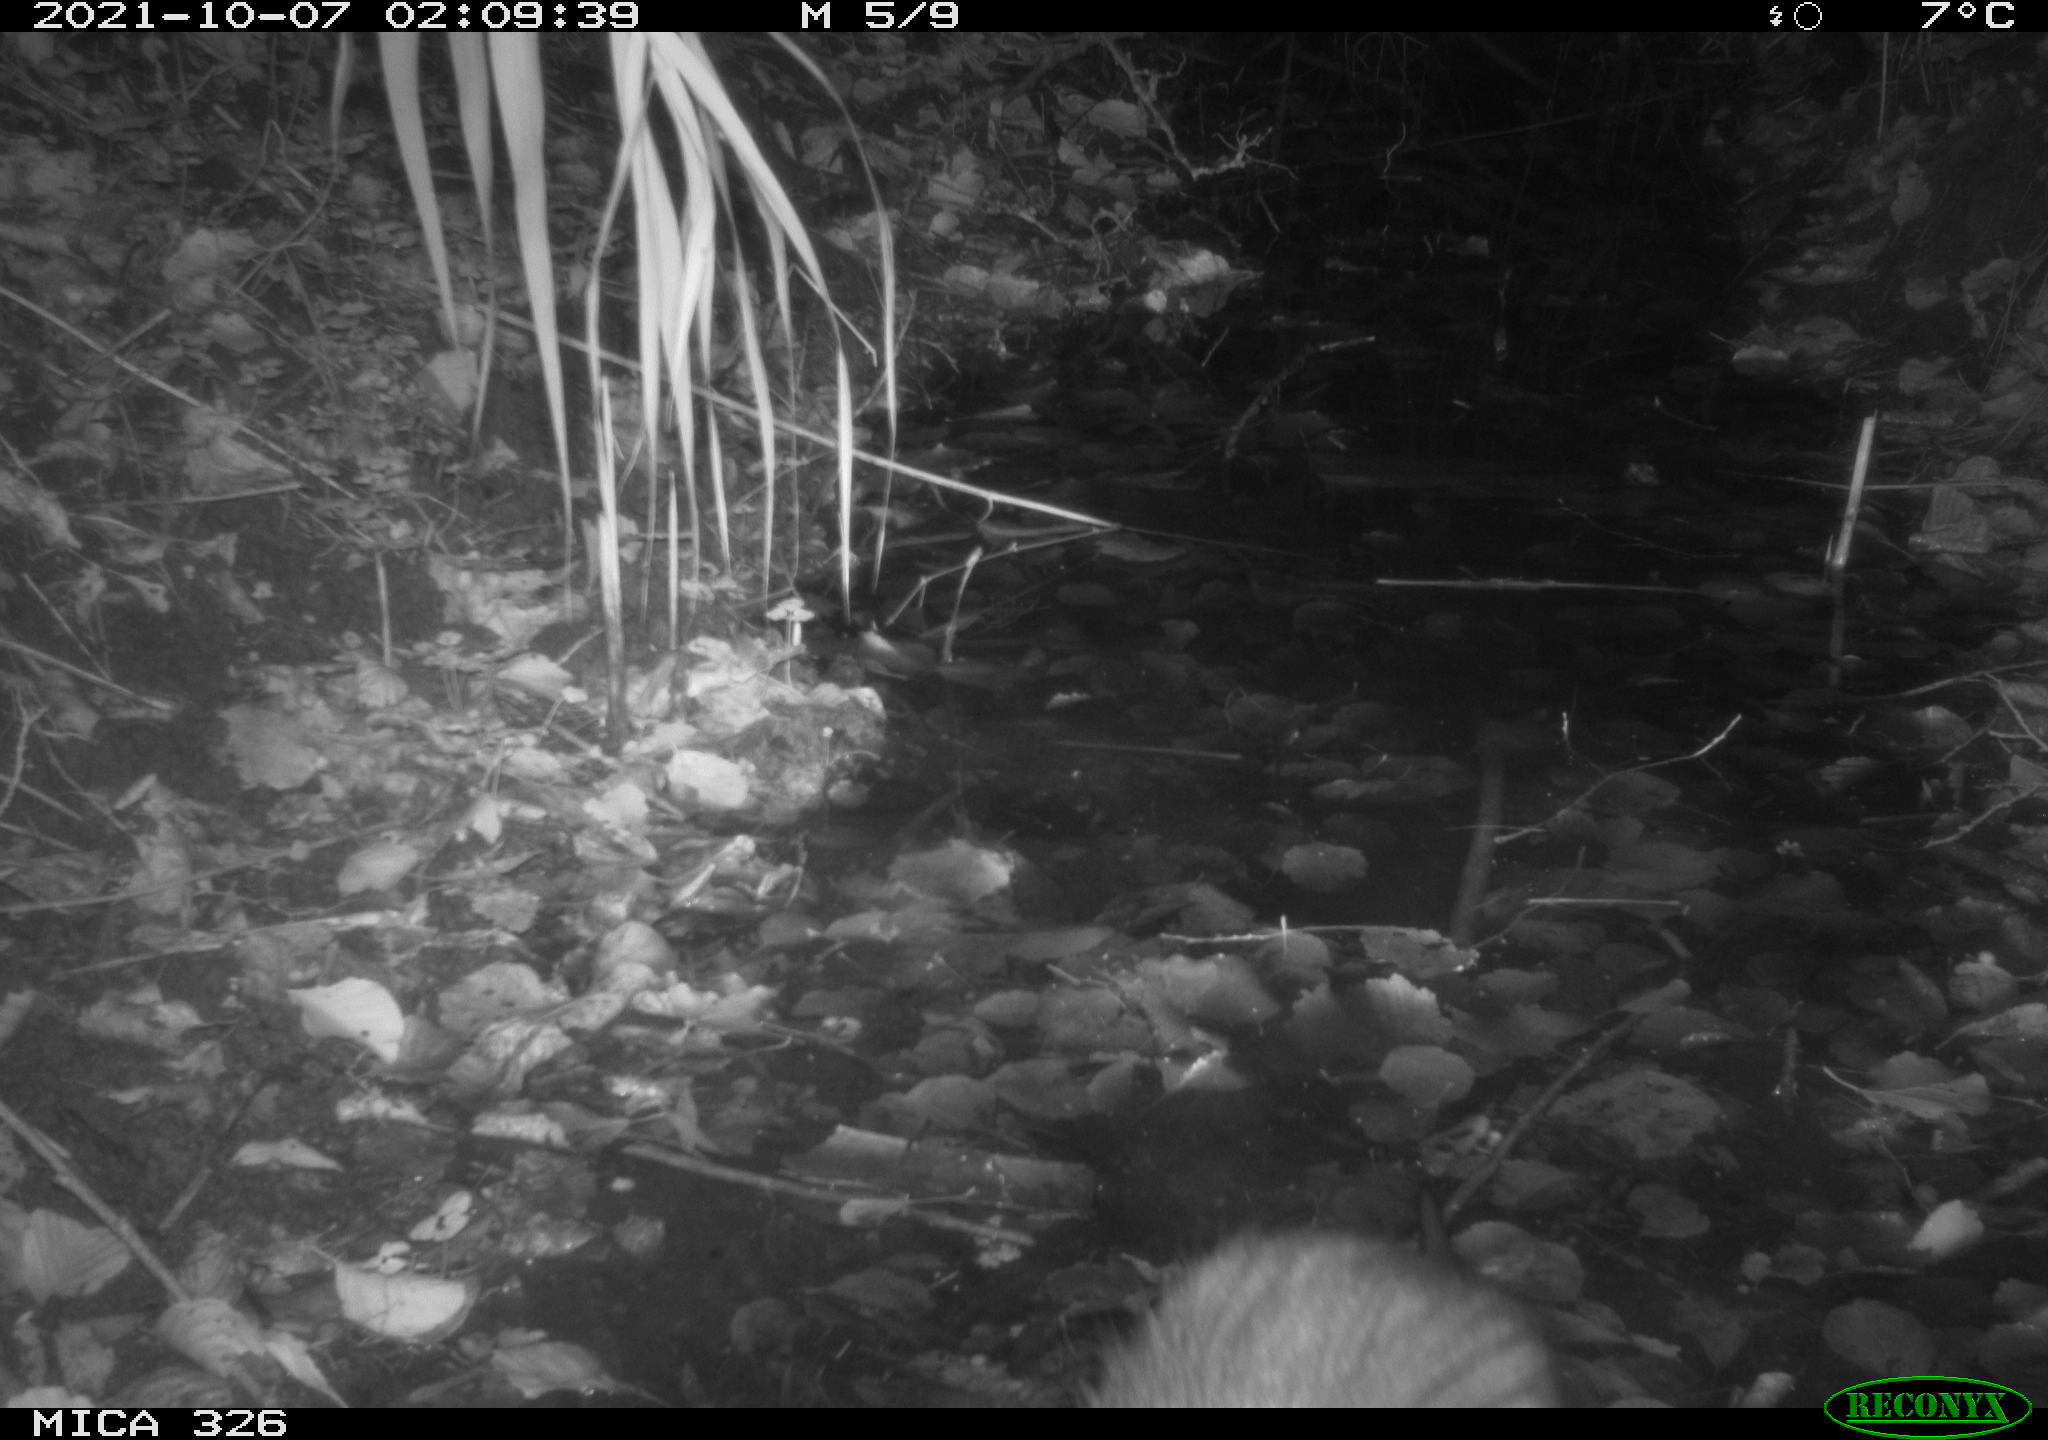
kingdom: Animalia
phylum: Chordata
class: Mammalia
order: Rodentia
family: Myocastoridae
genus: Myocastor
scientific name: Myocastor coypus
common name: Coypu
